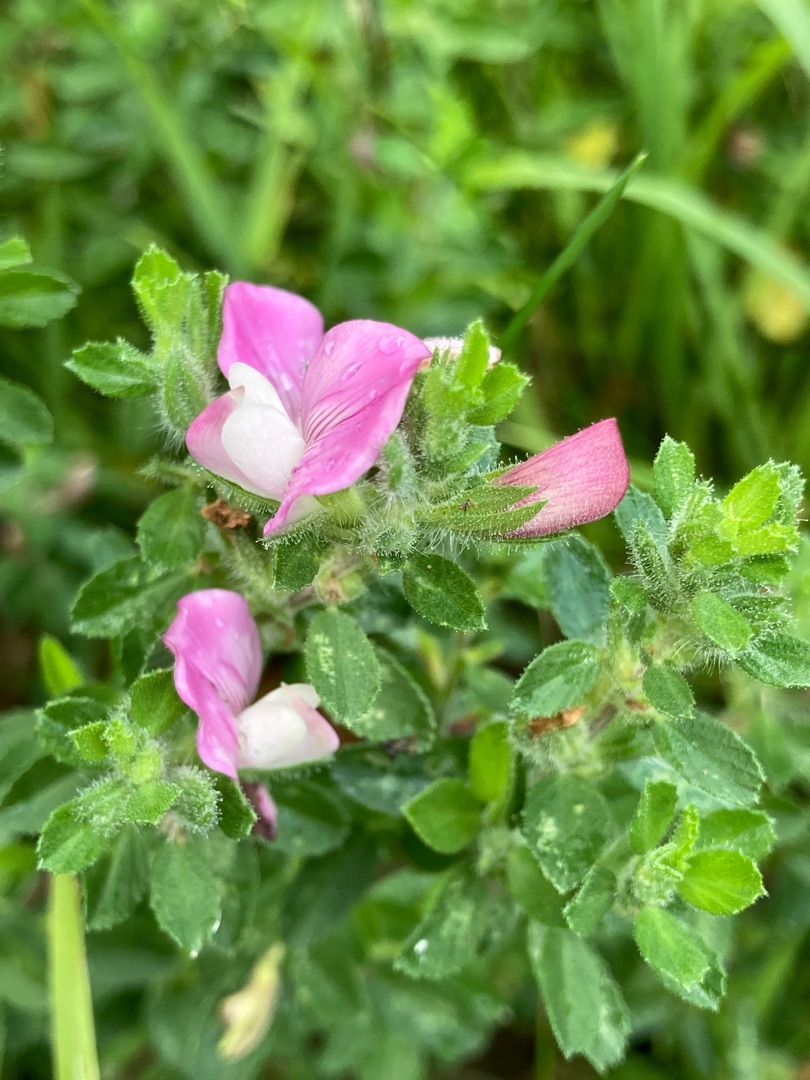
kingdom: Plantae
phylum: Tracheophyta
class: Magnoliopsida
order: Fabales
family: Fabaceae
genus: Ononis
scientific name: Ononis spinosa
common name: Mark-krageklo
